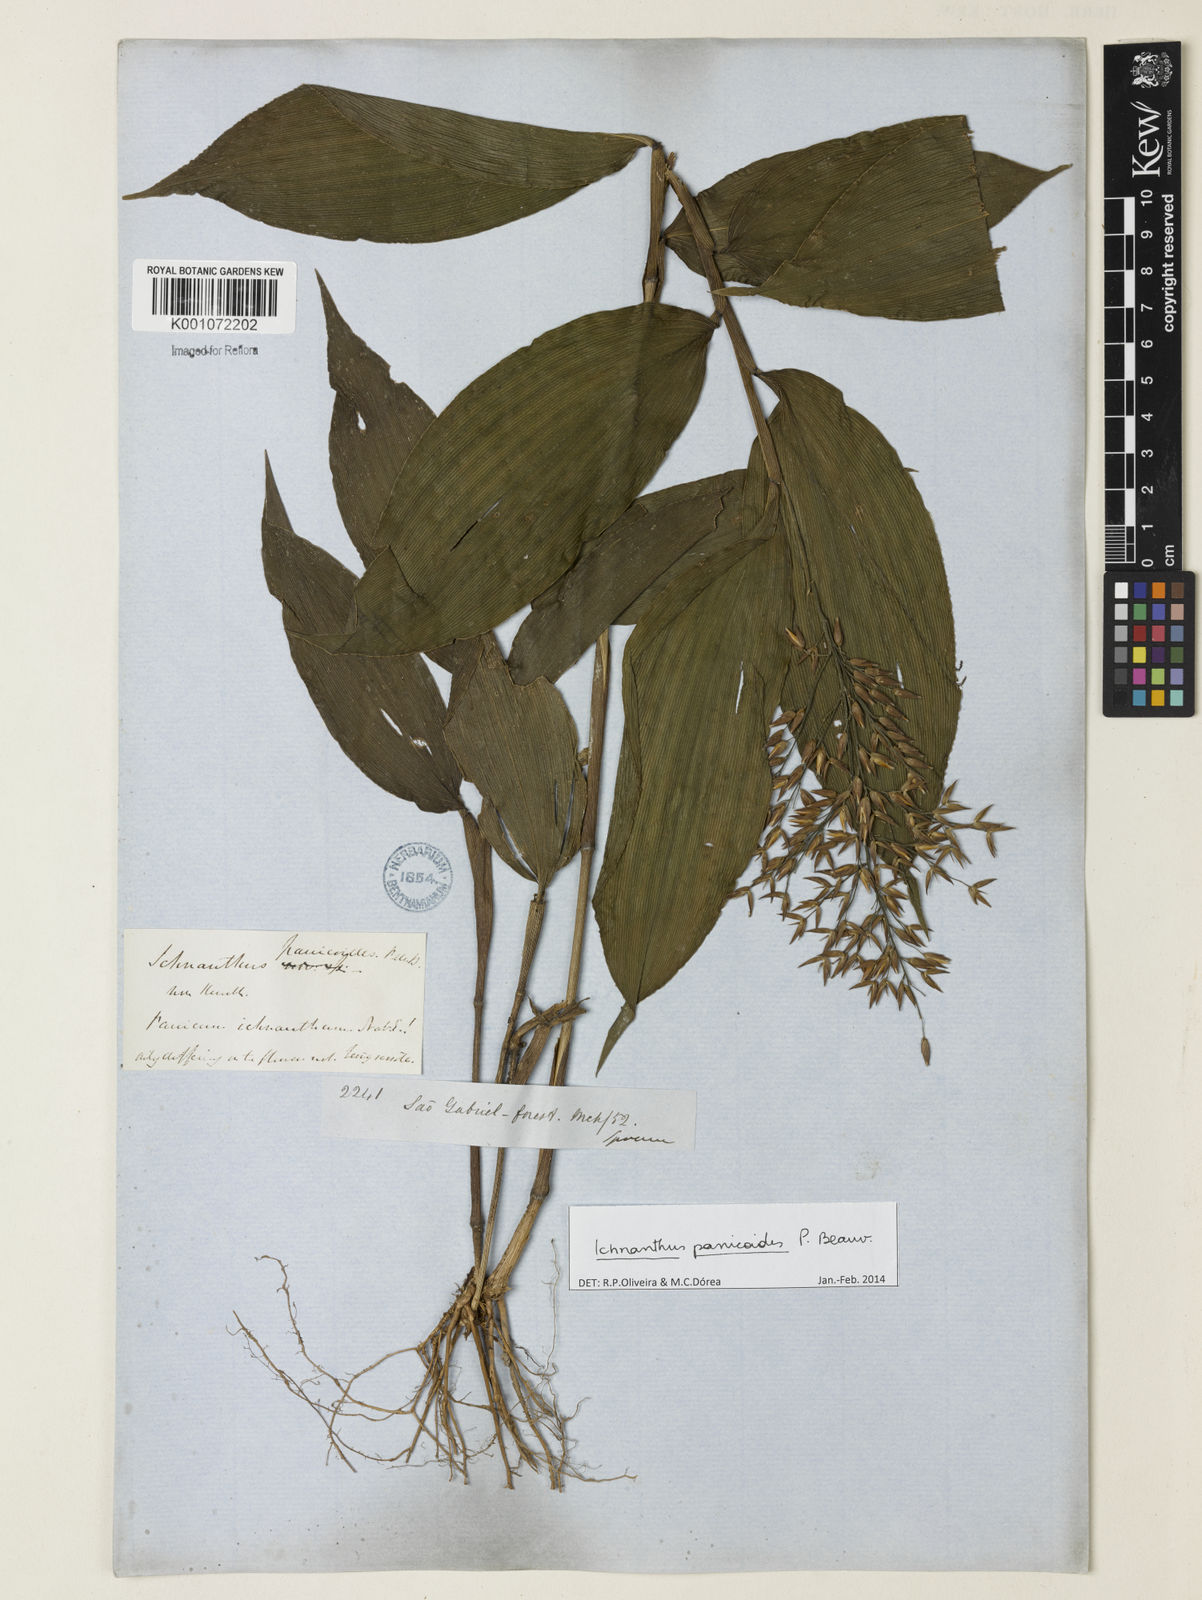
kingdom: Plantae
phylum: Tracheophyta
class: Liliopsida
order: Poales
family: Poaceae
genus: Ichnanthus
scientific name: Ichnanthus panicoides
